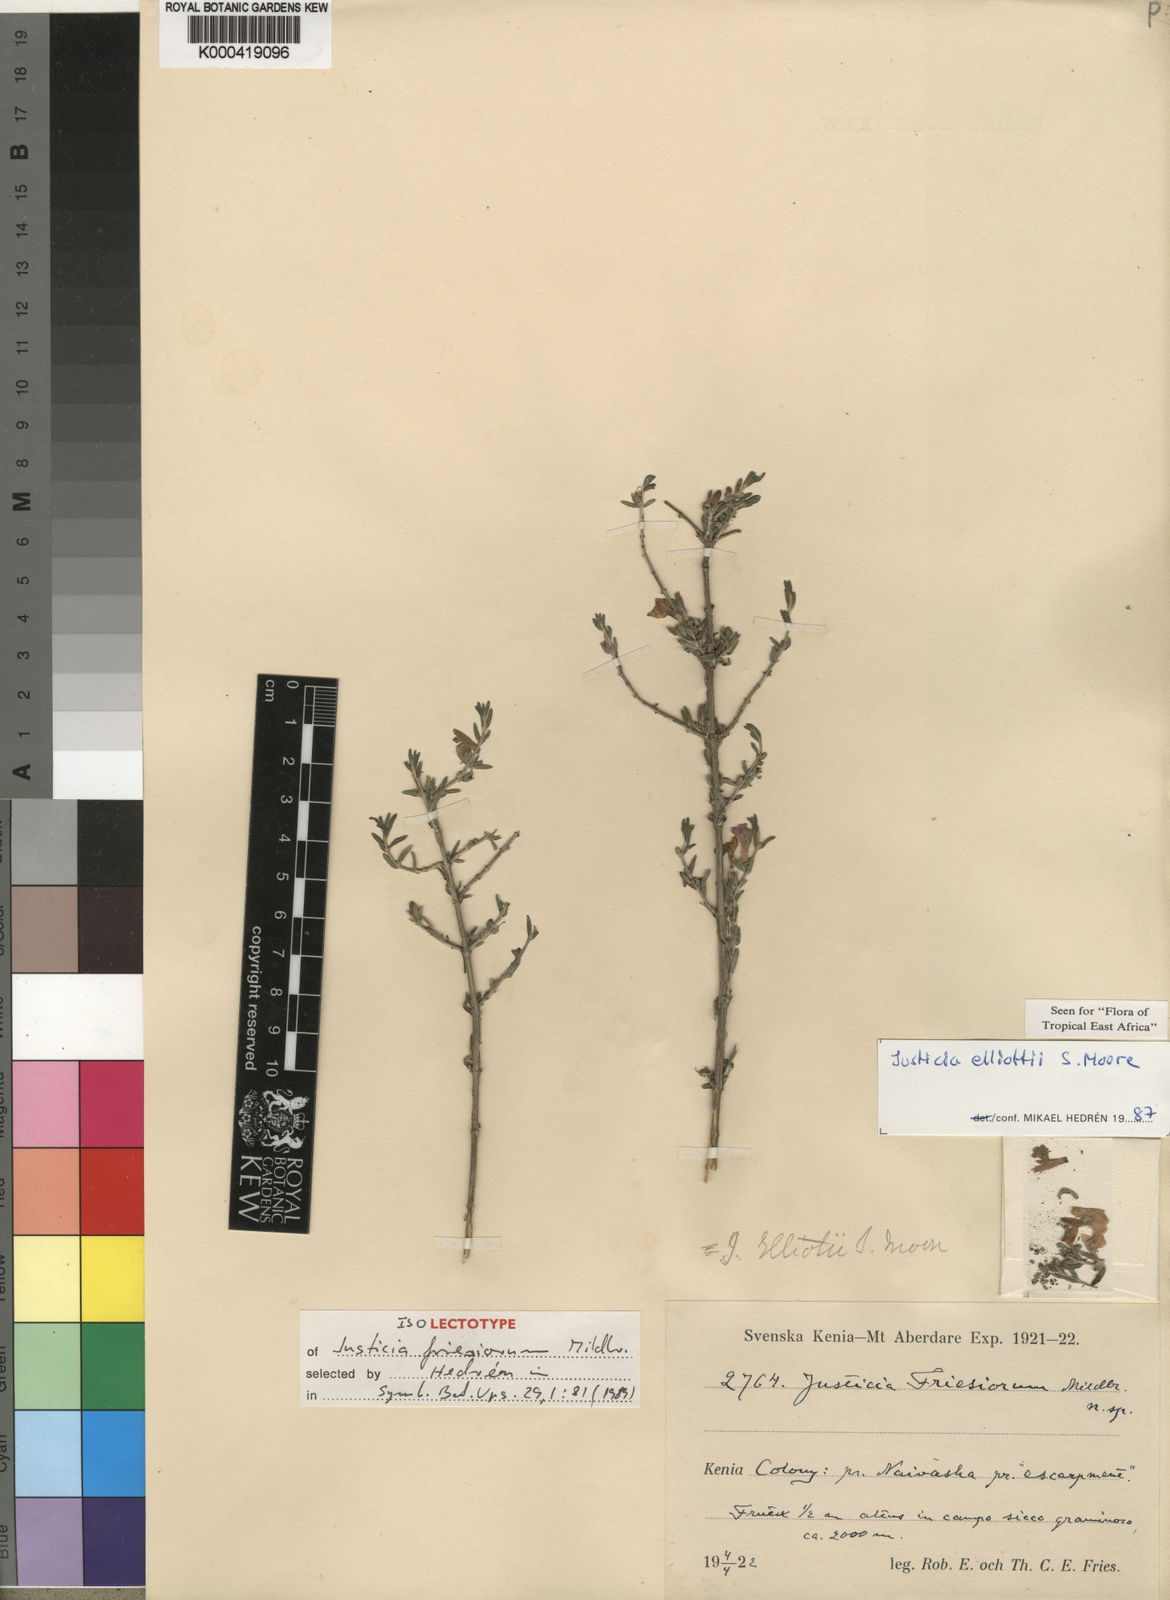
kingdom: Plantae
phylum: Tracheophyta
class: Magnoliopsida
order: Lamiales
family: Acanthaceae
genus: Justicia
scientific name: Justicia elliotii
